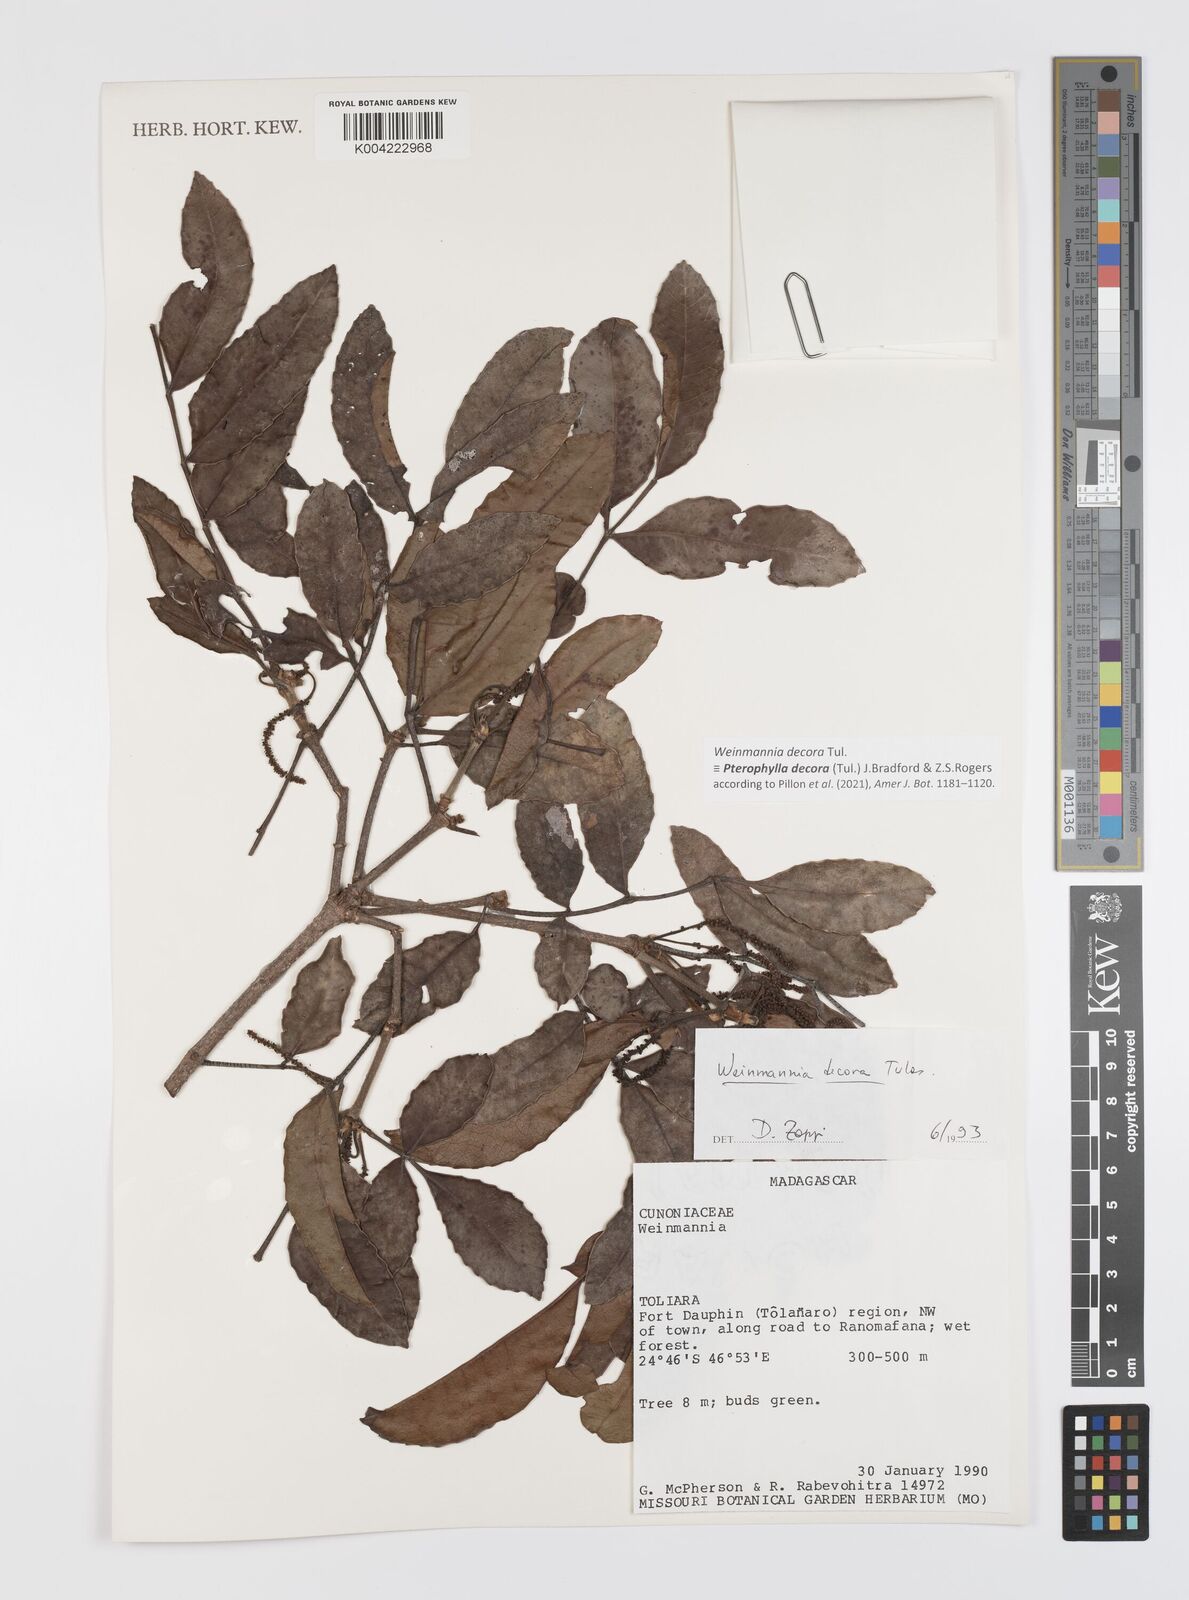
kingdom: Plantae
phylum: Tracheophyta
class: Magnoliopsida
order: Oxalidales
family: Cunoniaceae
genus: Pterophylla
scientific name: Pterophylla decora
